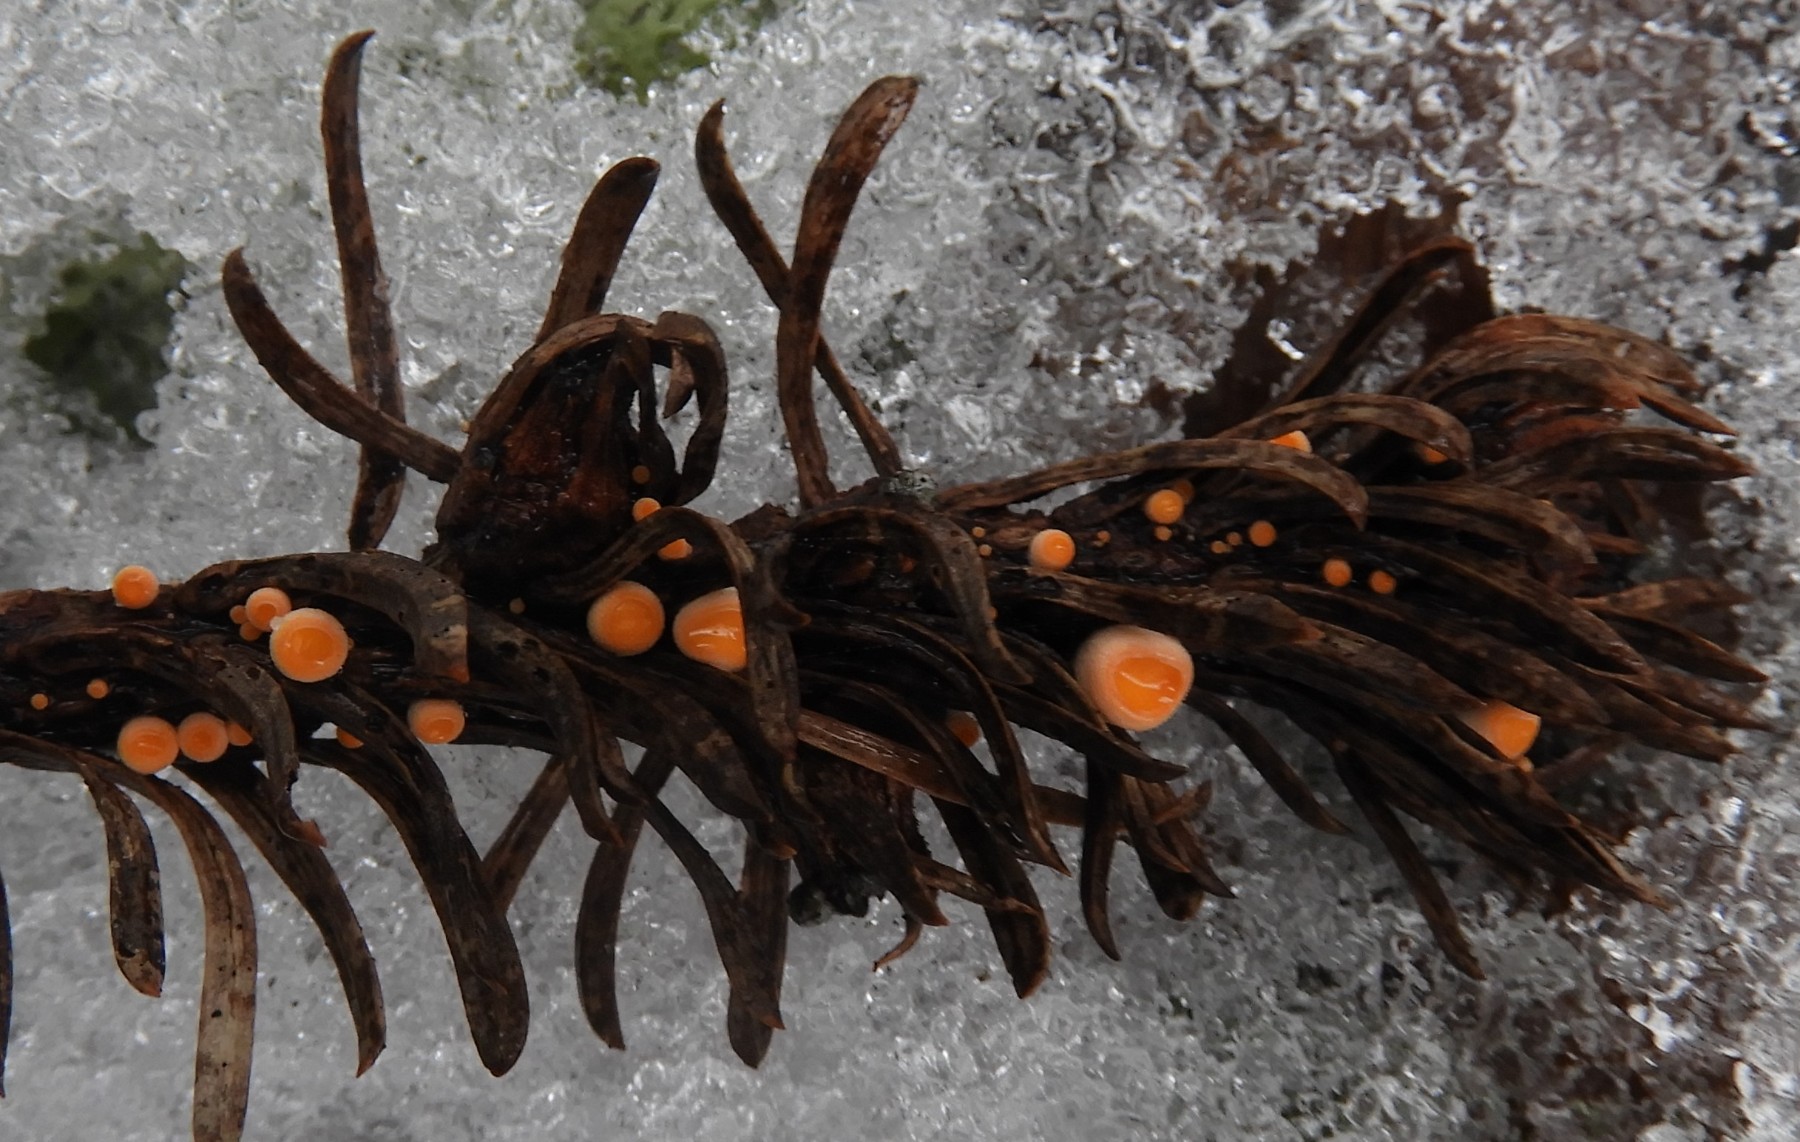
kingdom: Fungi
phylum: Ascomycota
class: Pezizomycetes
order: Pezizales
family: Sarcoscyphaceae
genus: Pithya
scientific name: Pithya vulgaris
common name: stor dukatbæger
